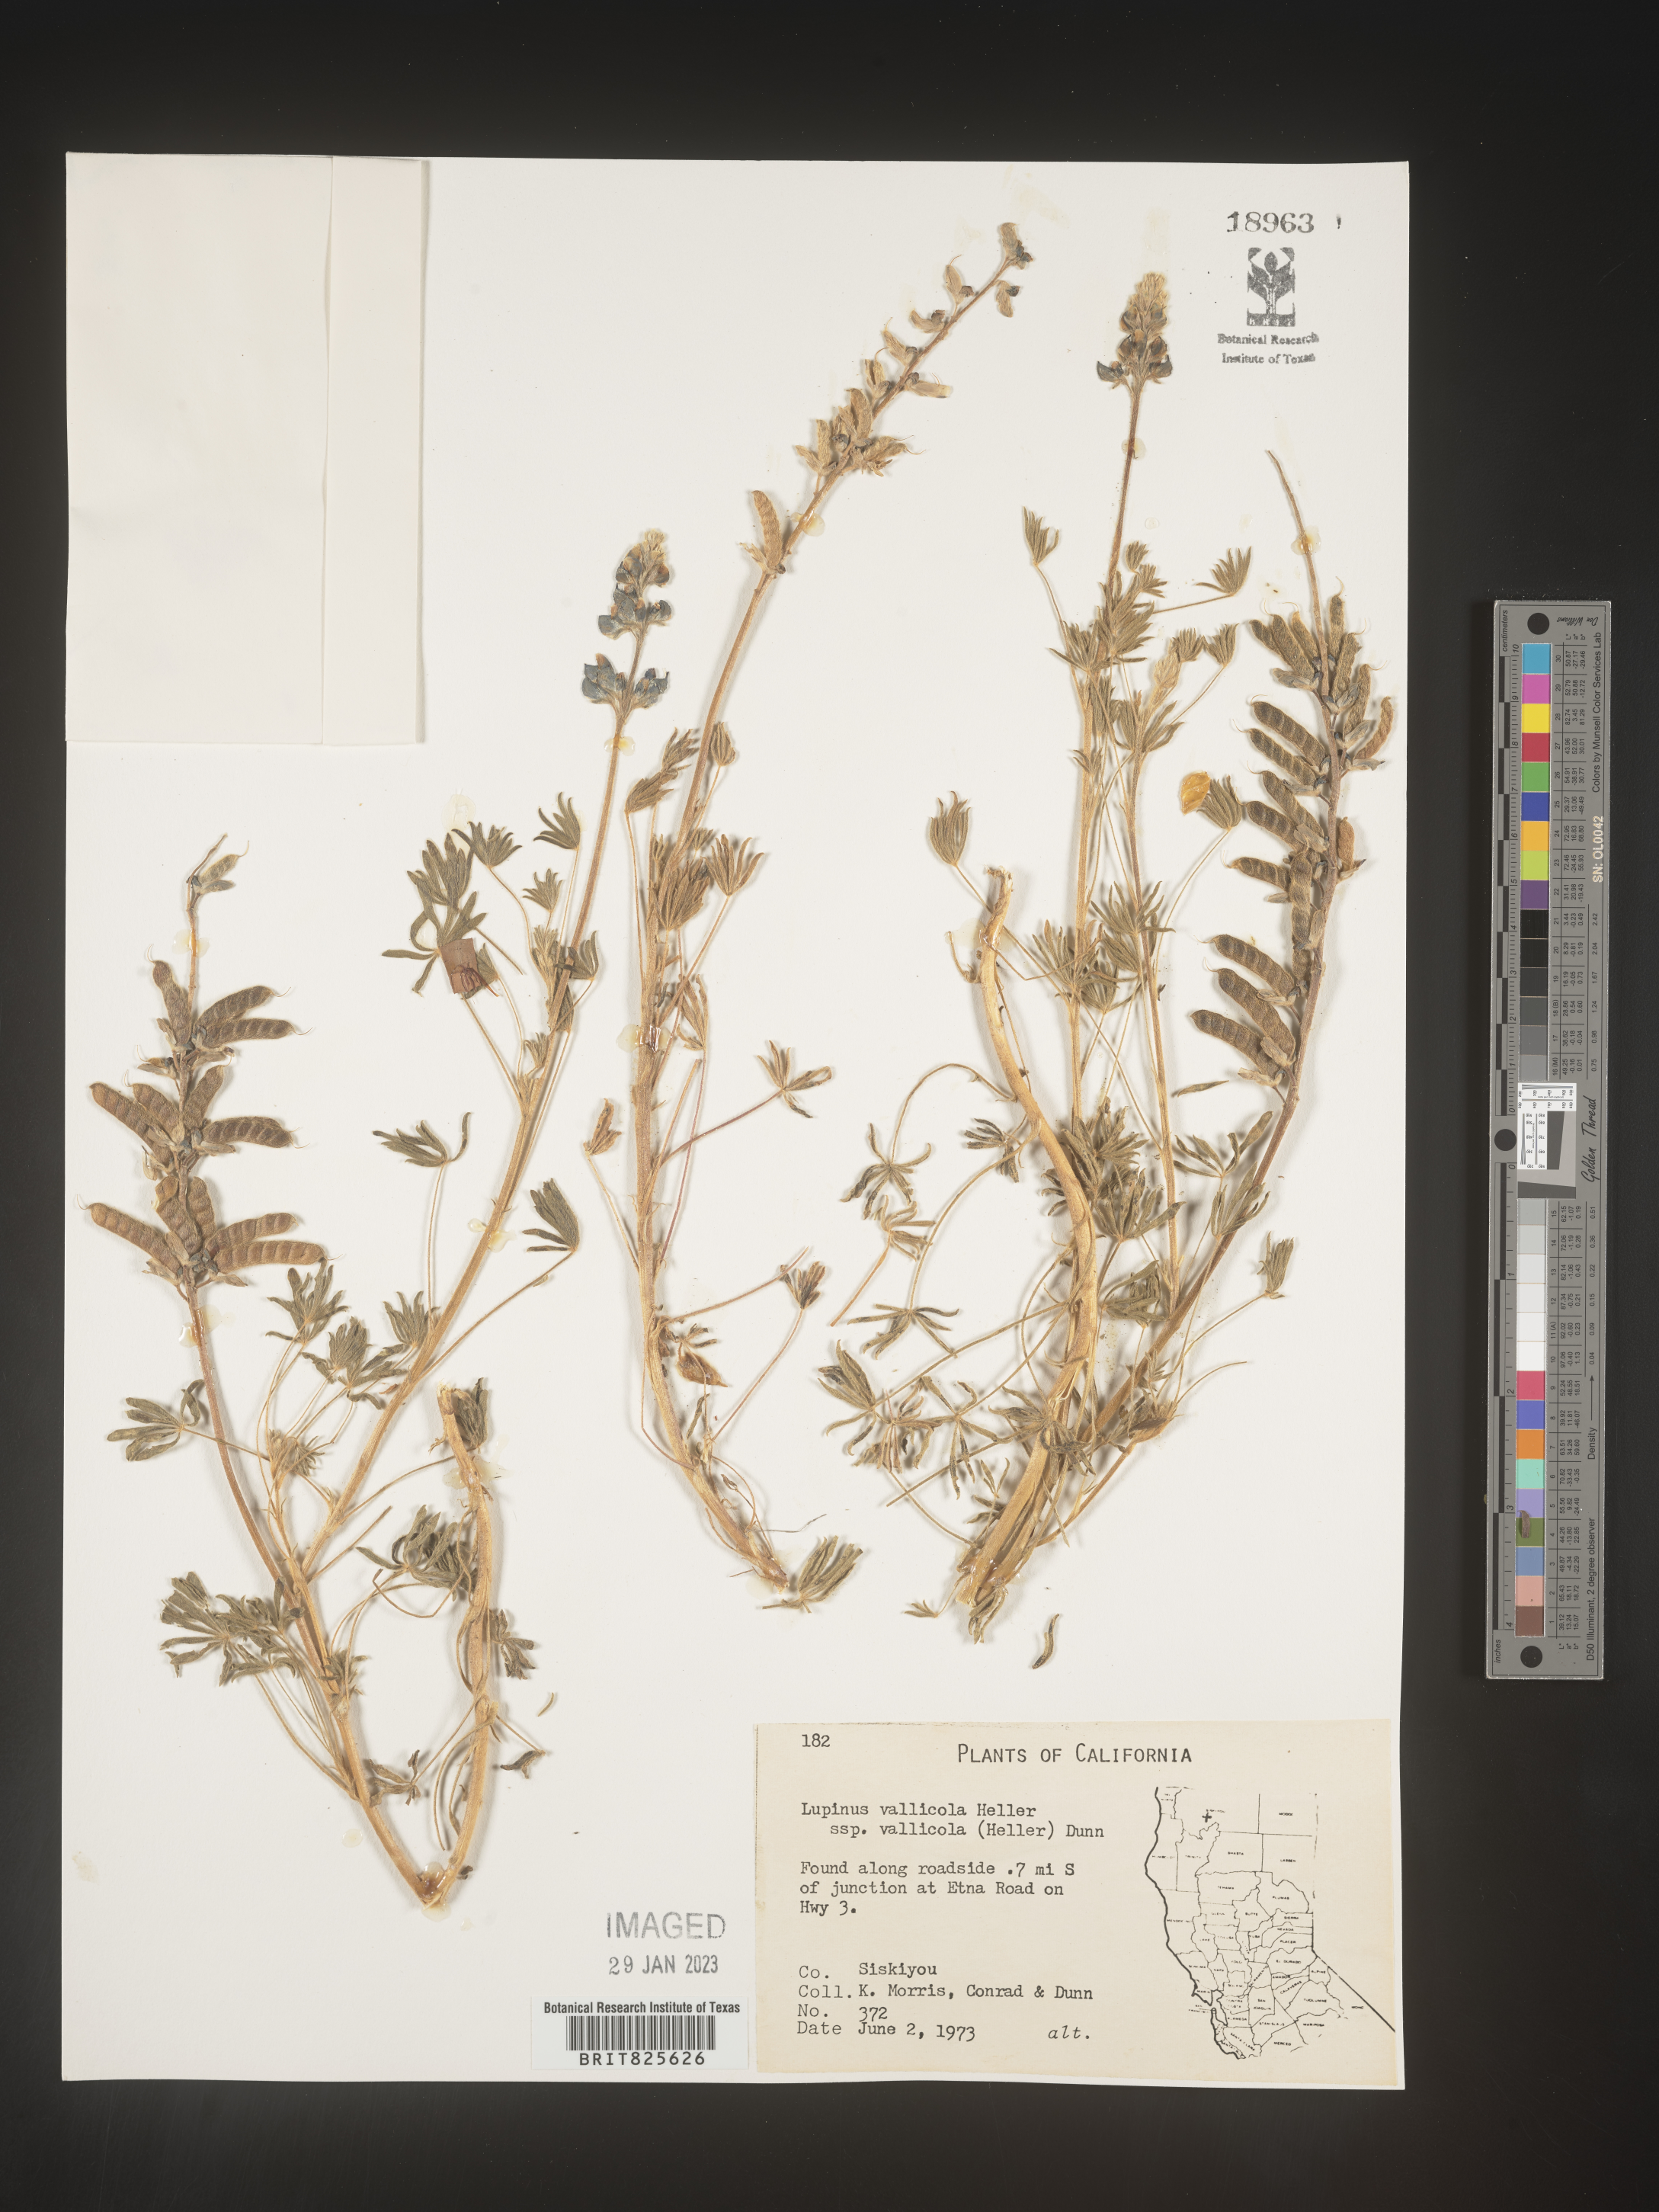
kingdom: Plantae
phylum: Tracheophyta
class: Magnoliopsida
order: Fabales
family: Fabaceae
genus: Lupinus
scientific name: Lupinus
